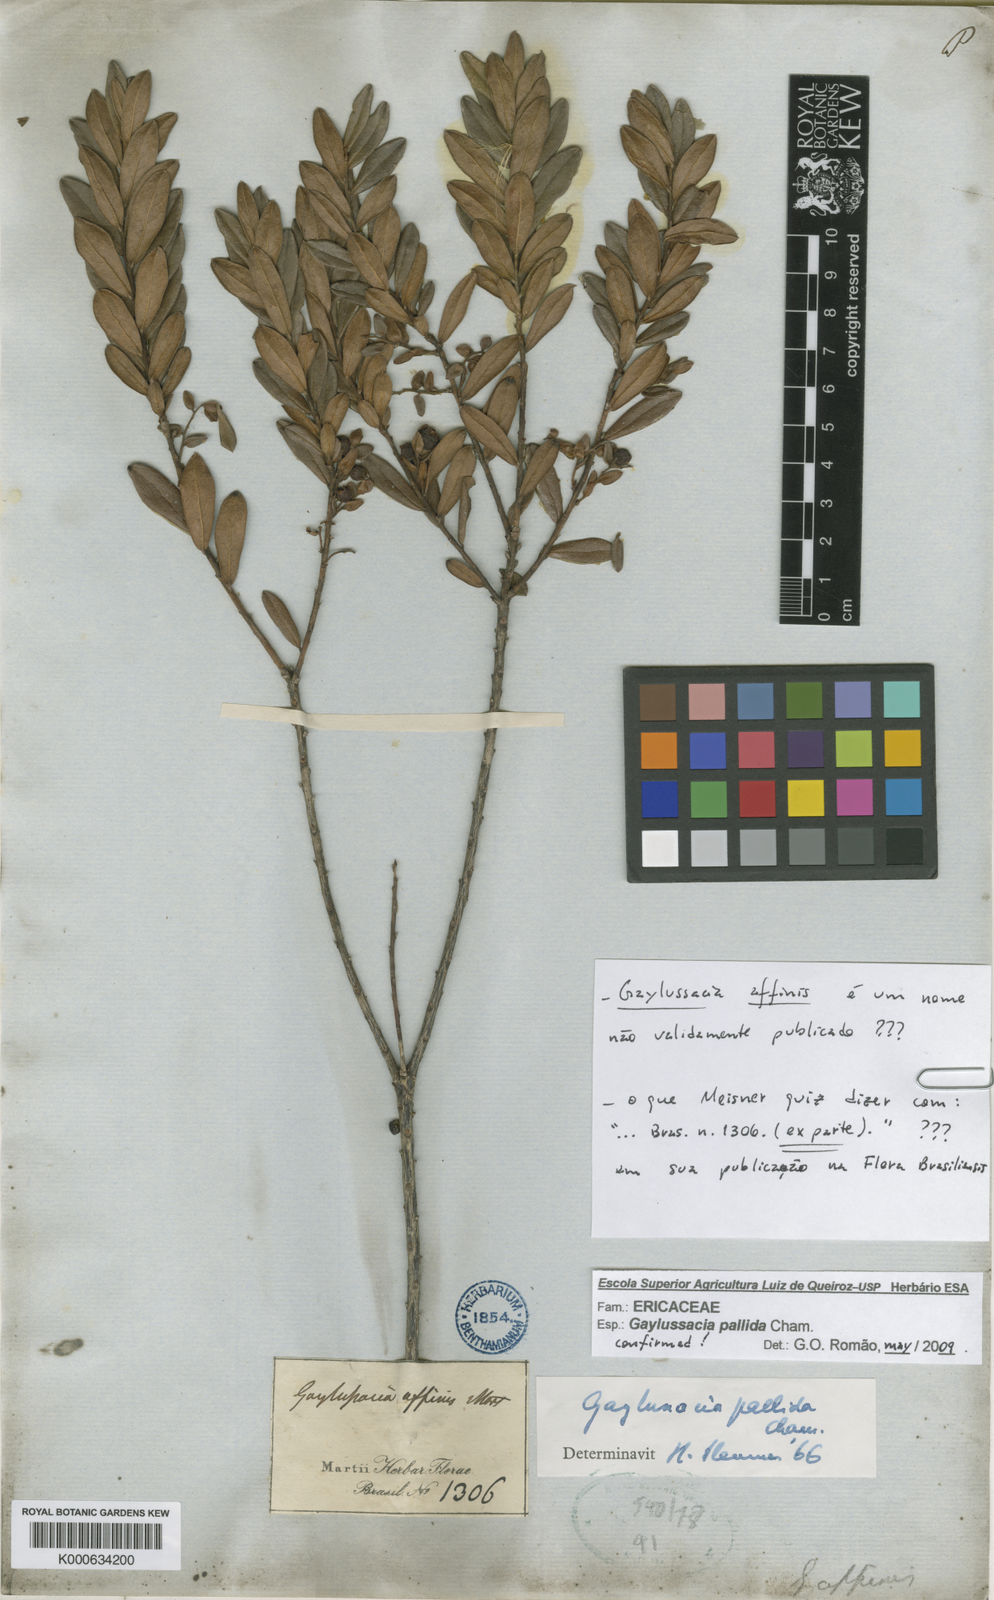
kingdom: Plantae
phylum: Tracheophyta
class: Magnoliopsida
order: Ericales
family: Ericaceae
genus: Gaylussacia
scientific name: Gaylussacia pallida
